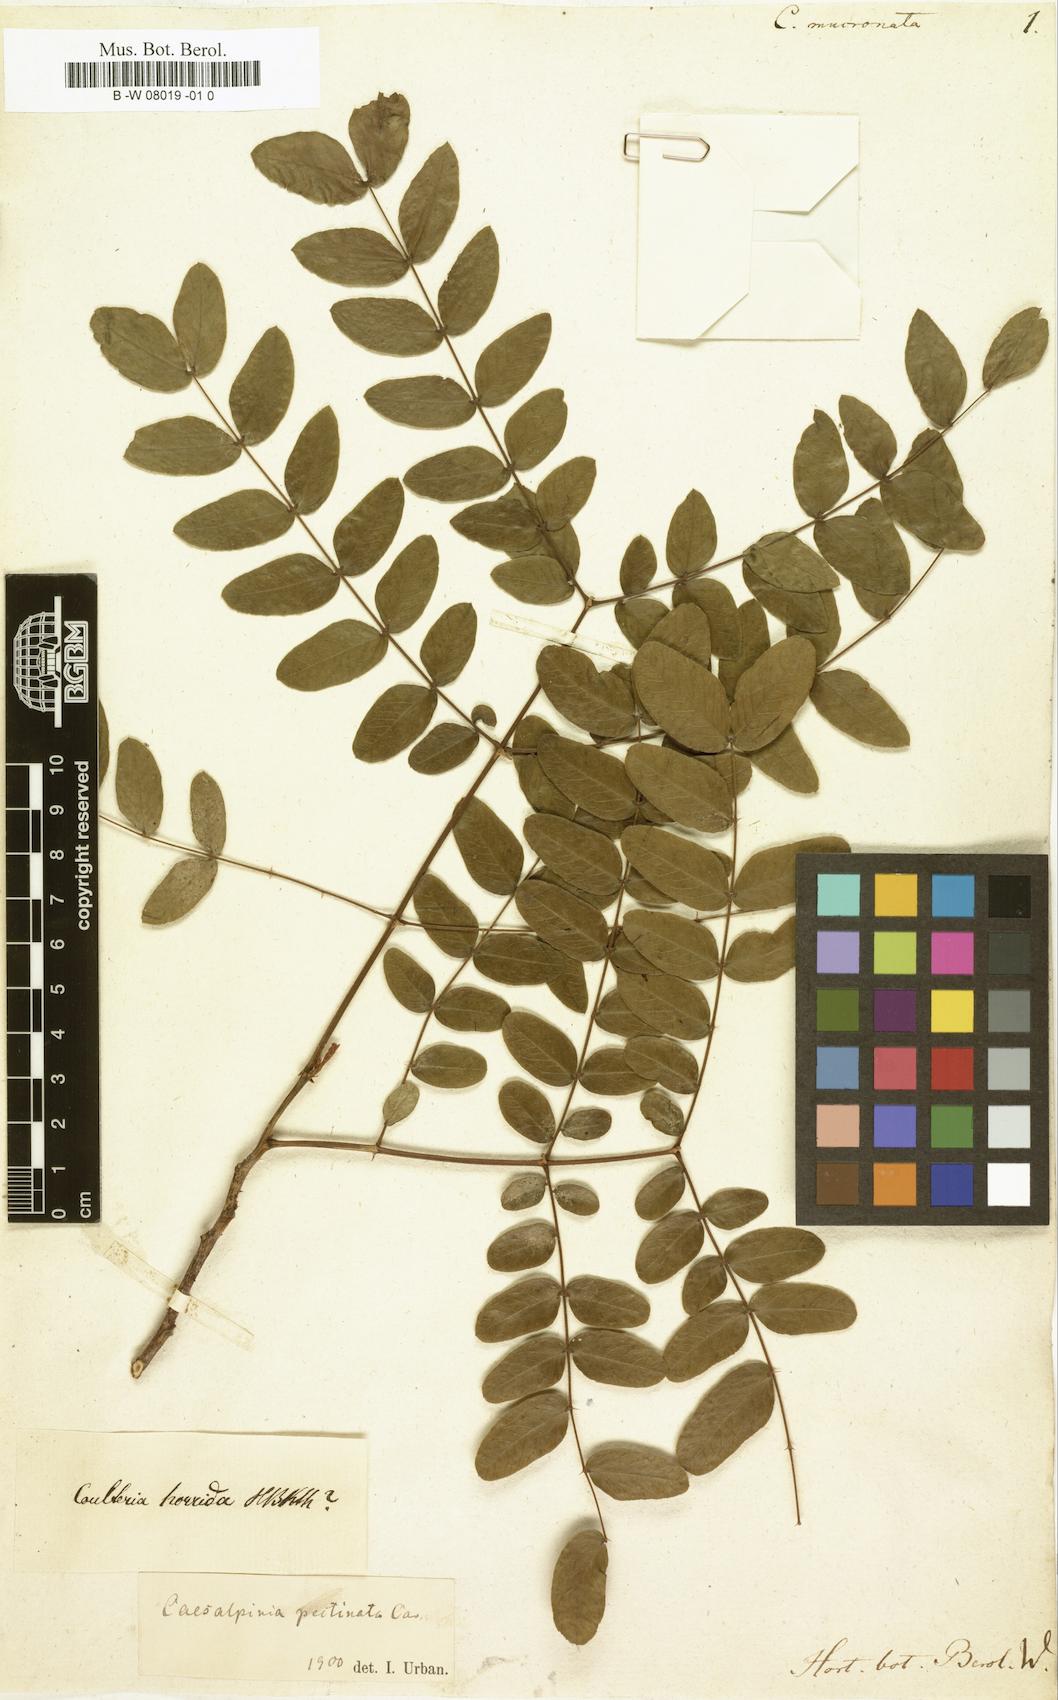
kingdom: Plantae
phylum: Tracheophyta
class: Magnoliopsida
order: Fabales
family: Fabaceae
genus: Tara
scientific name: Tara spinosa
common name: Spiny holdback
